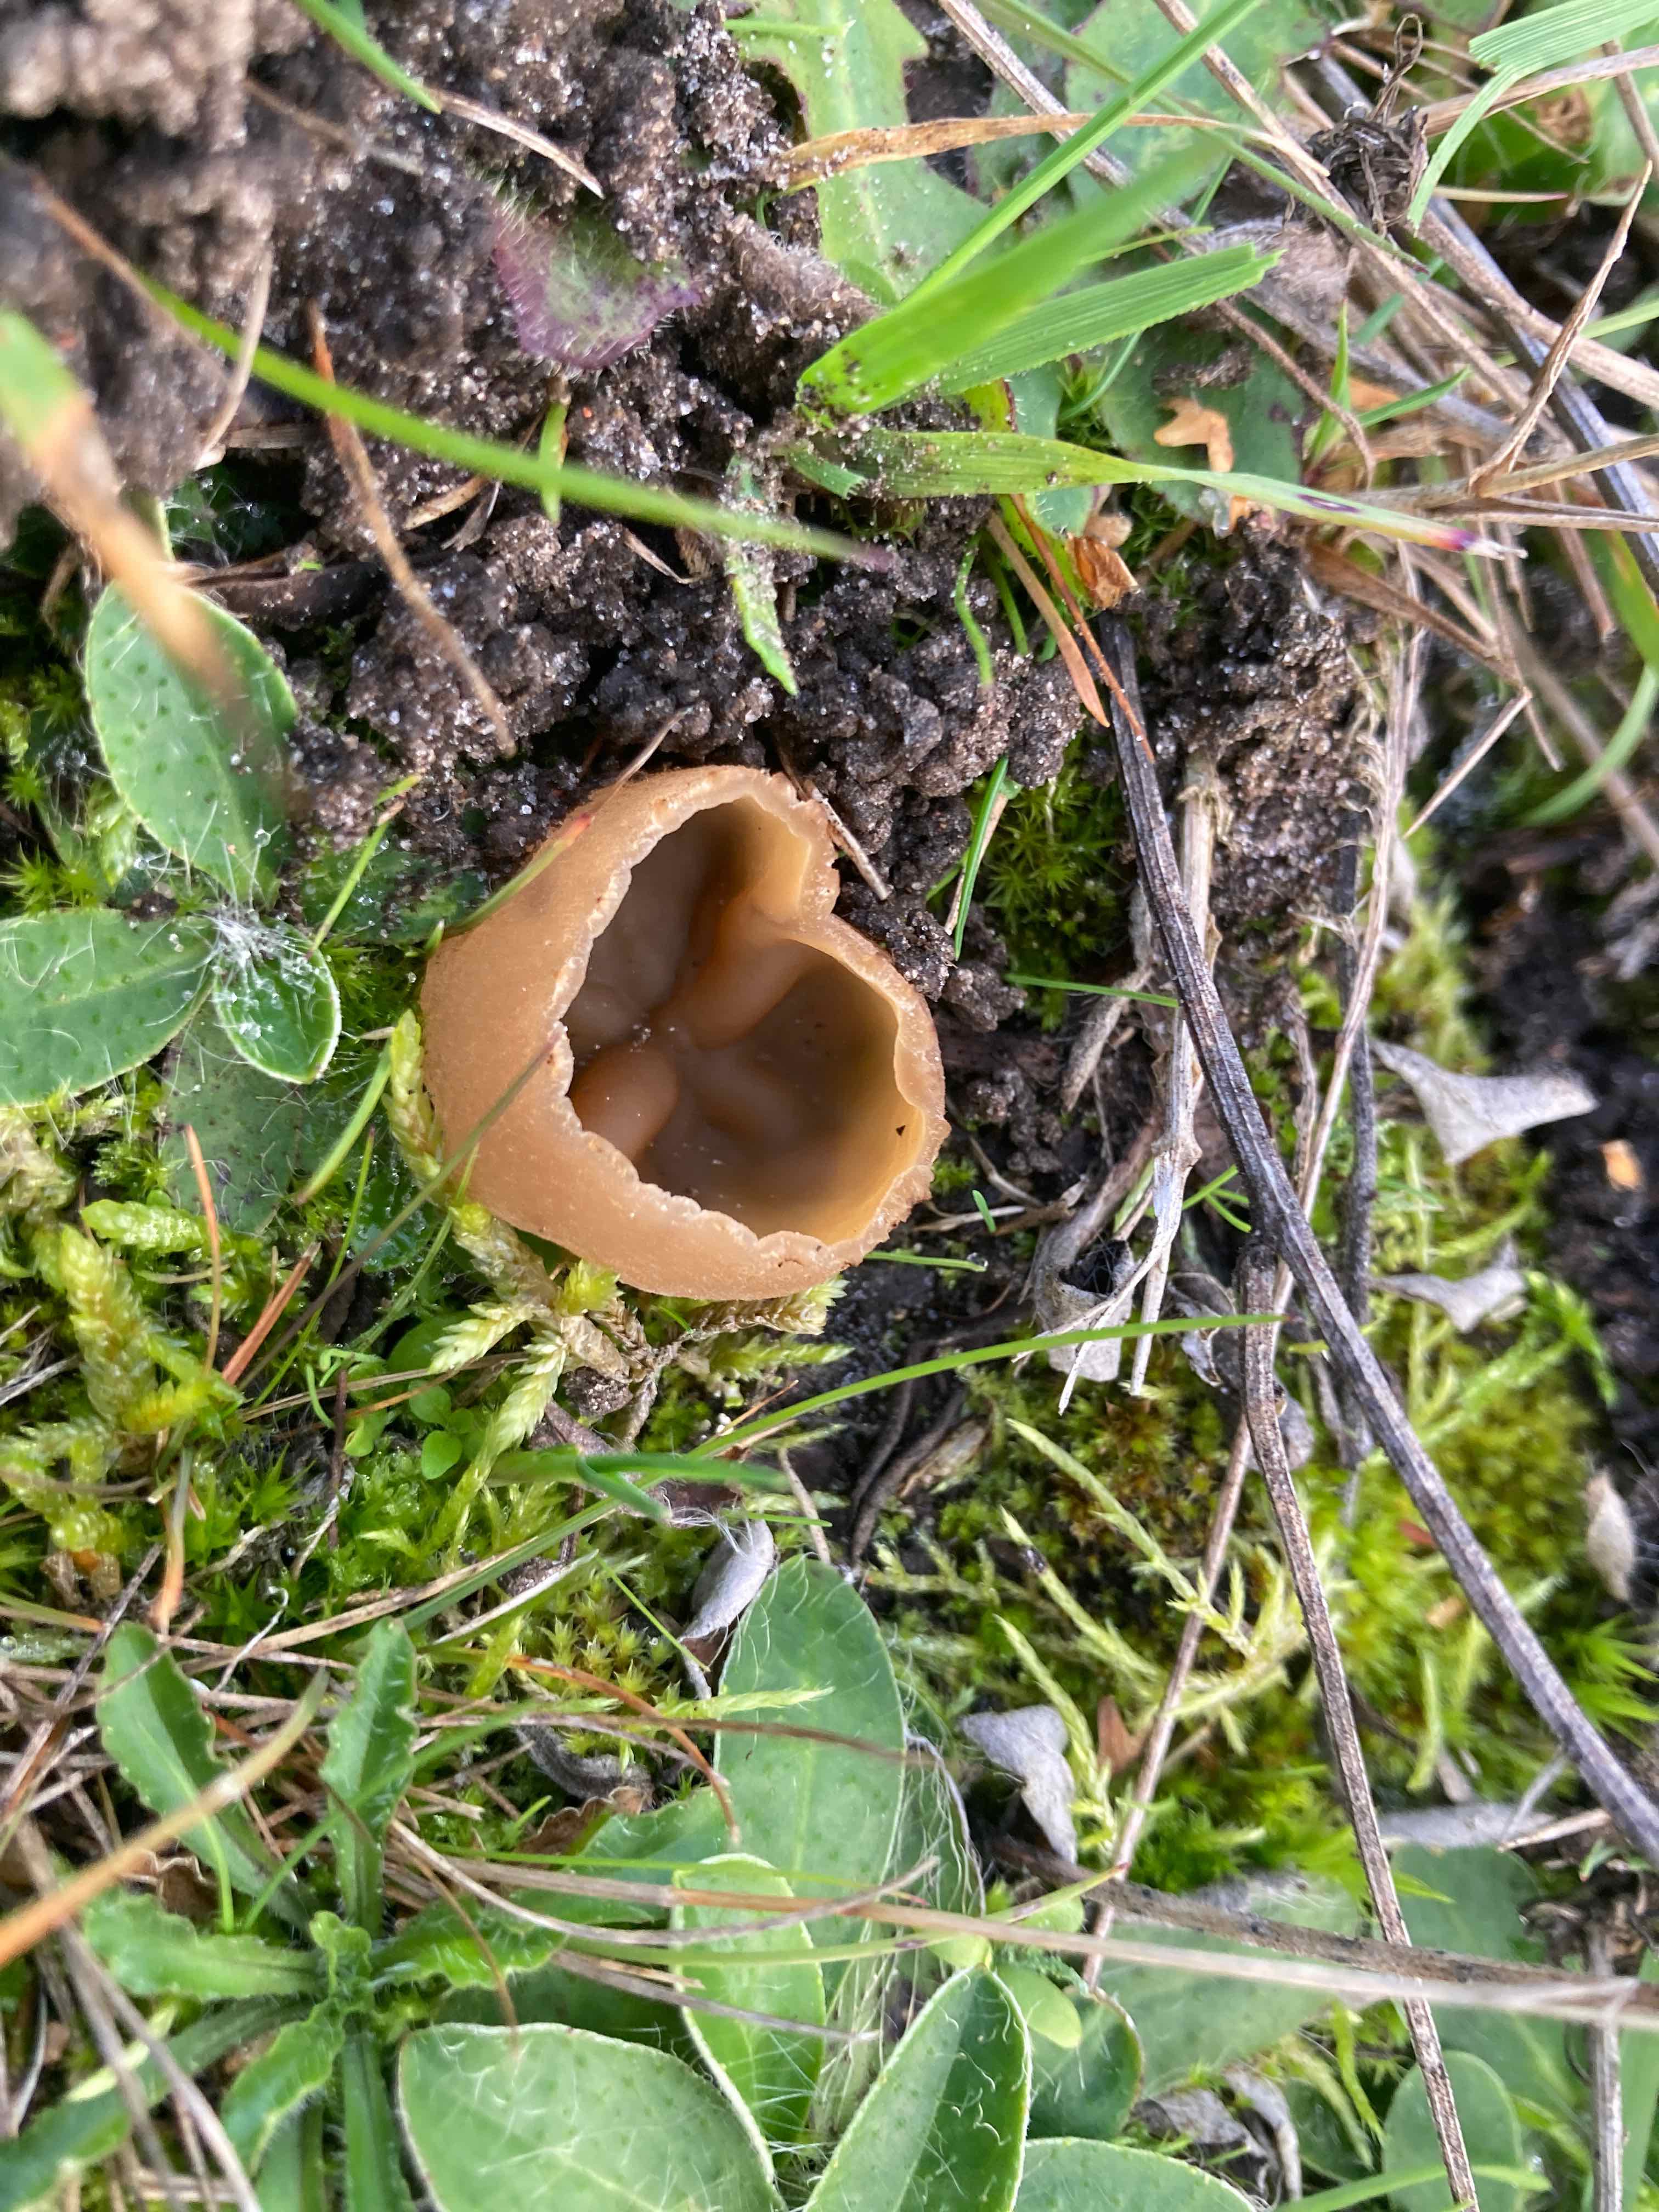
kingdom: Fungi
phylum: Ascomycota
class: Pezizomycetes
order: Pezizales
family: Pezizaceae
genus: Peziza
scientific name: Peziza fimeti
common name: møg-bægersvamp
